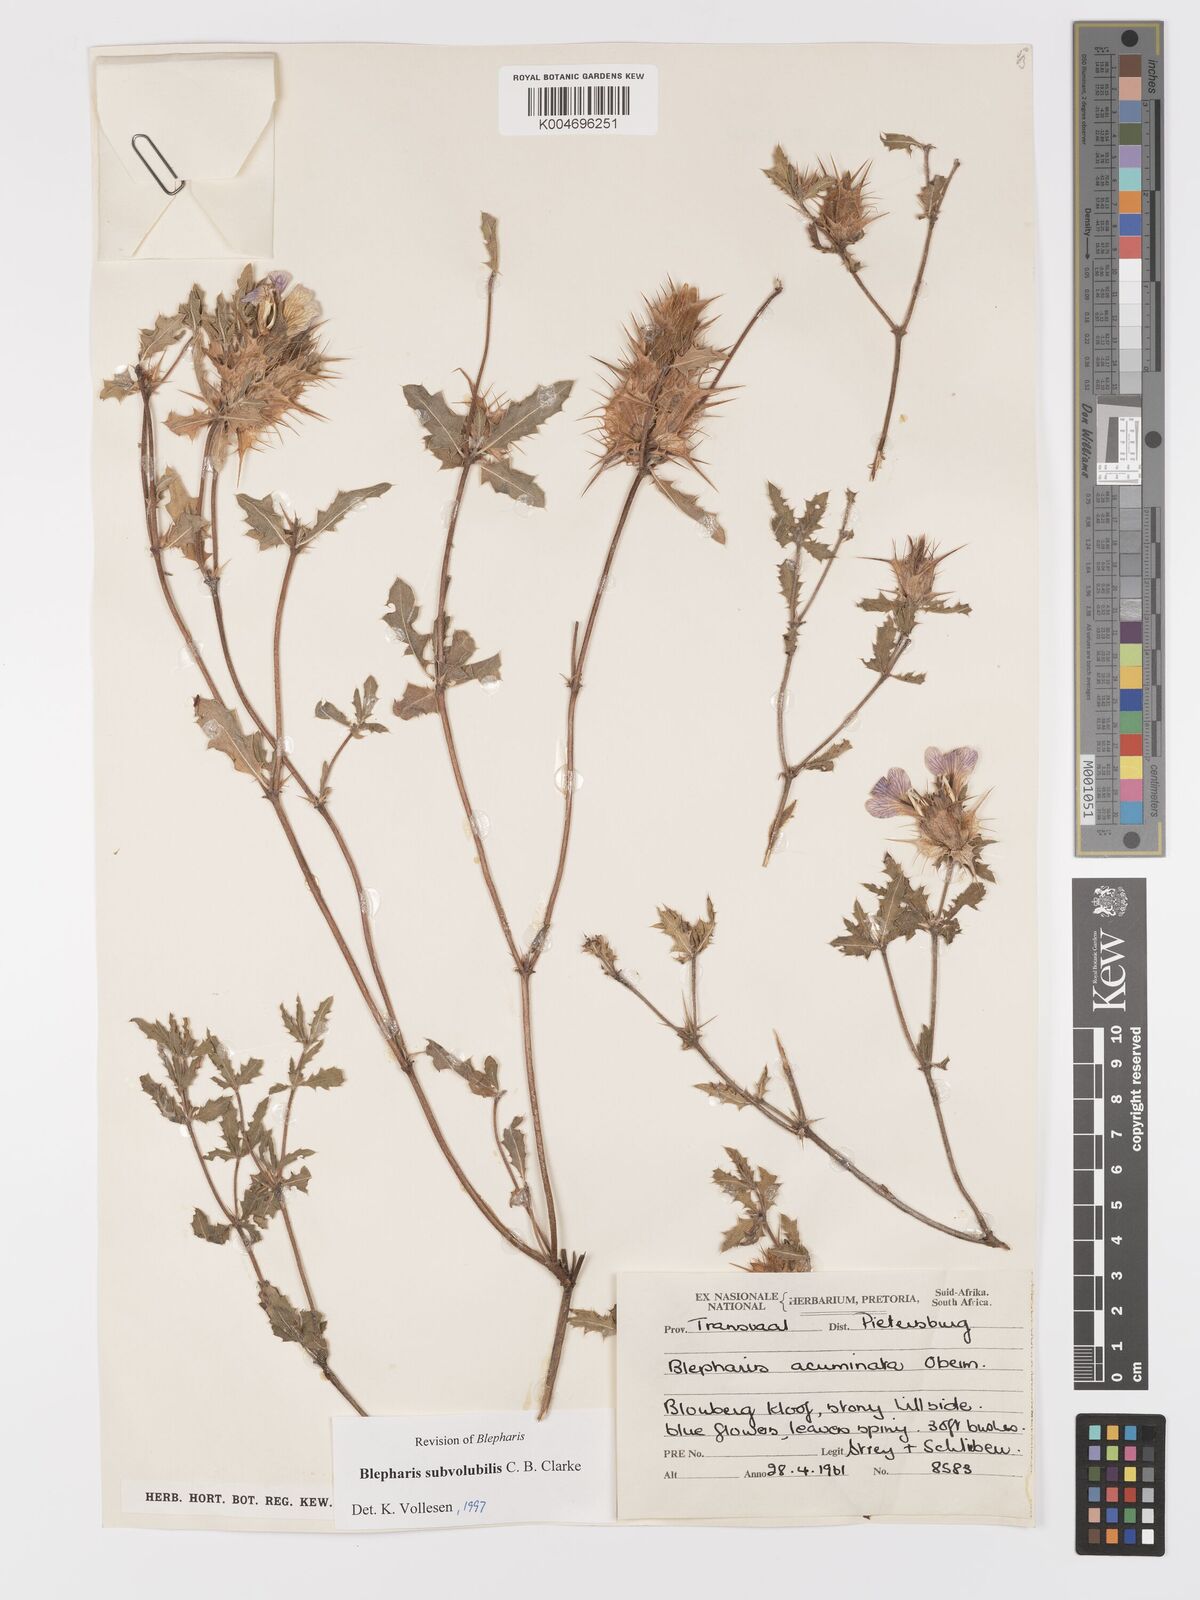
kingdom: Plantae
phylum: Tracheophyta
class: Magnoliopsida
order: Lamiales
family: Acanthaceae
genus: Blepharis
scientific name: Blepharis subvolubilis
